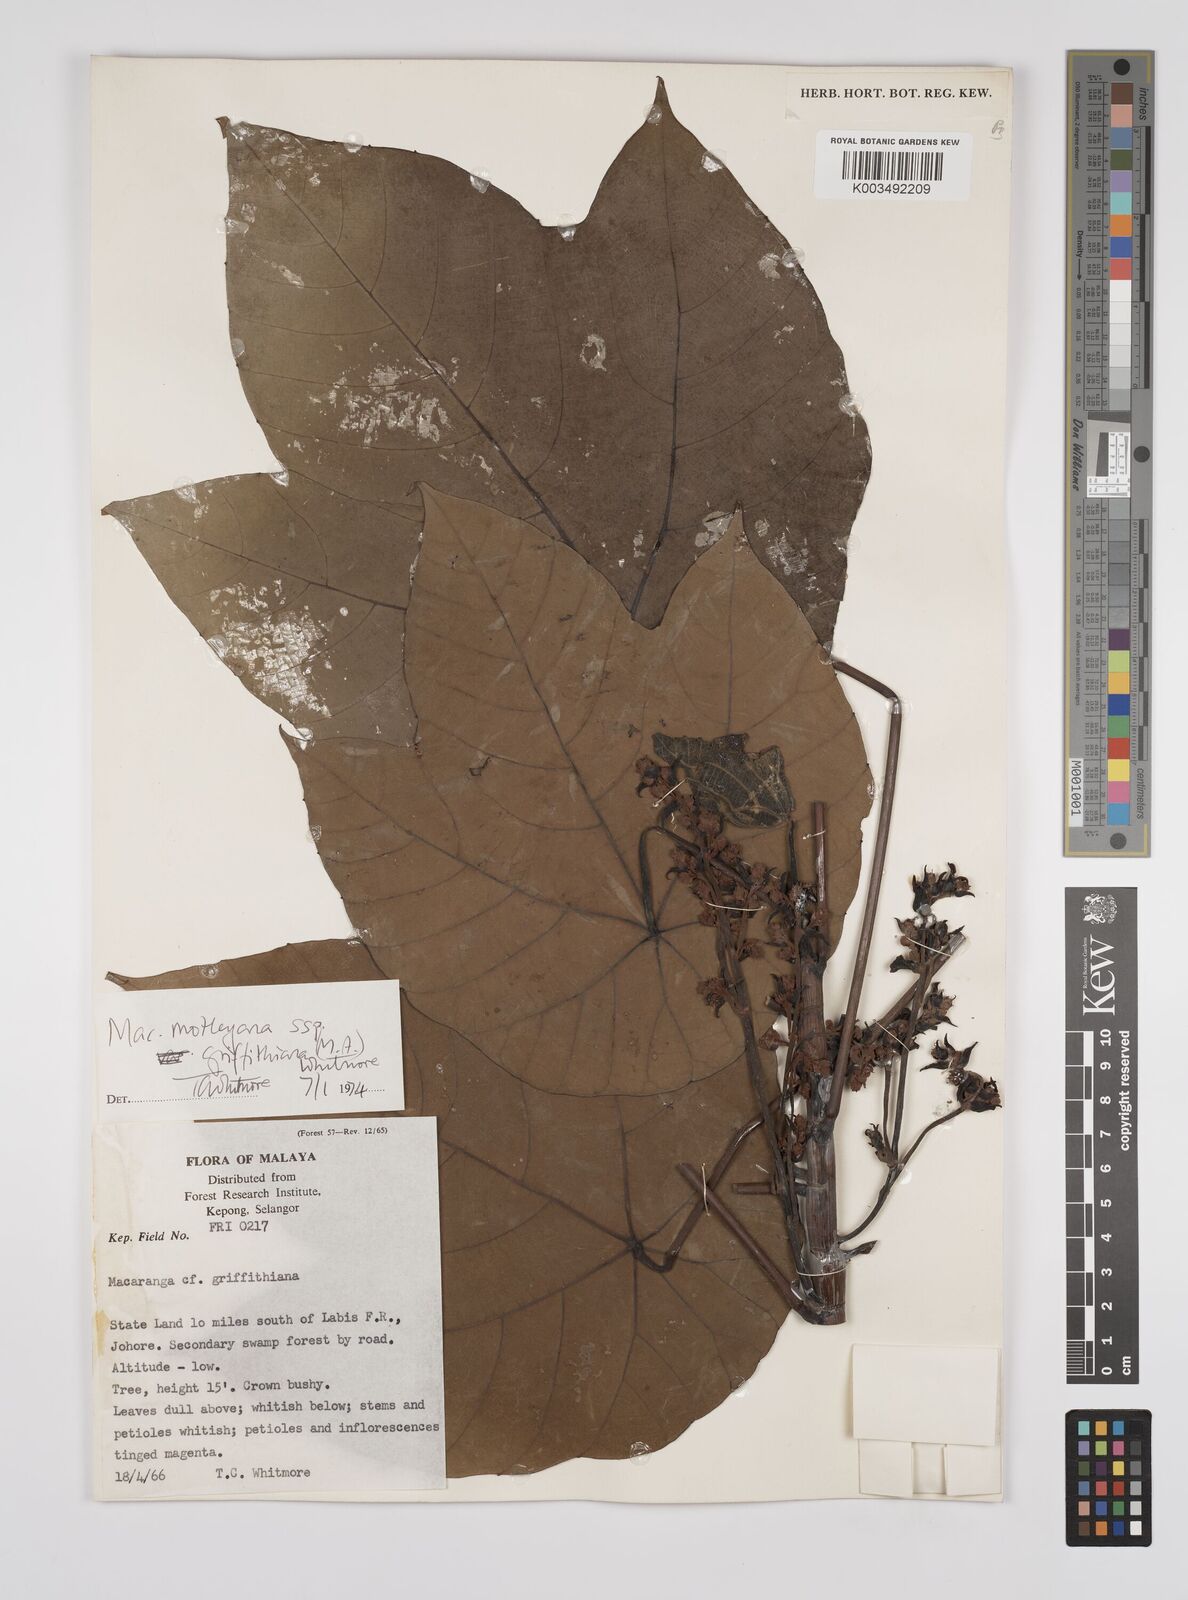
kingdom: Plantae
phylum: Tracheophyta
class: Magnoliopsida
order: Malpighiales
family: Euphorbiaceae
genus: Macaranga
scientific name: Macaranga griffithiana
